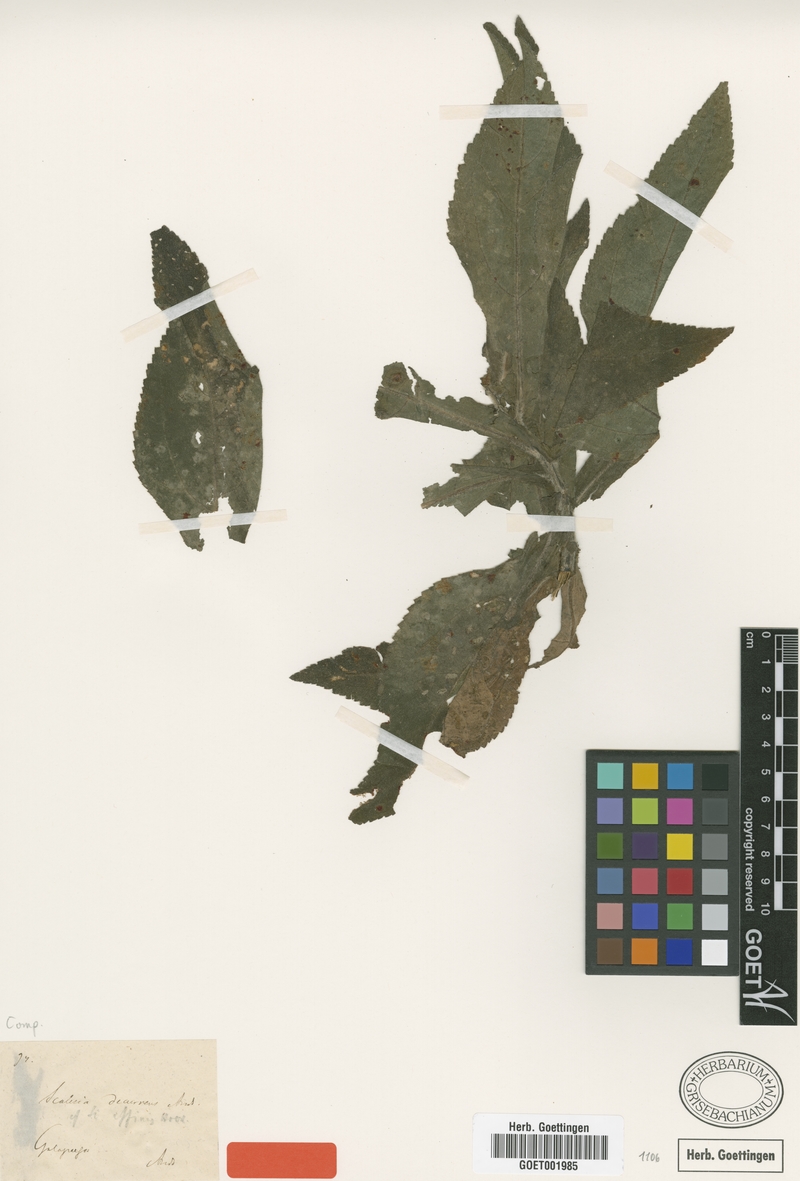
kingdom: Plantae
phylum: Tracheophyta
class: Magnoliopsida
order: Asterales
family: Asteraceae
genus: Scalesia
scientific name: Scalesia affinis
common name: Radiate-headed scalesia
